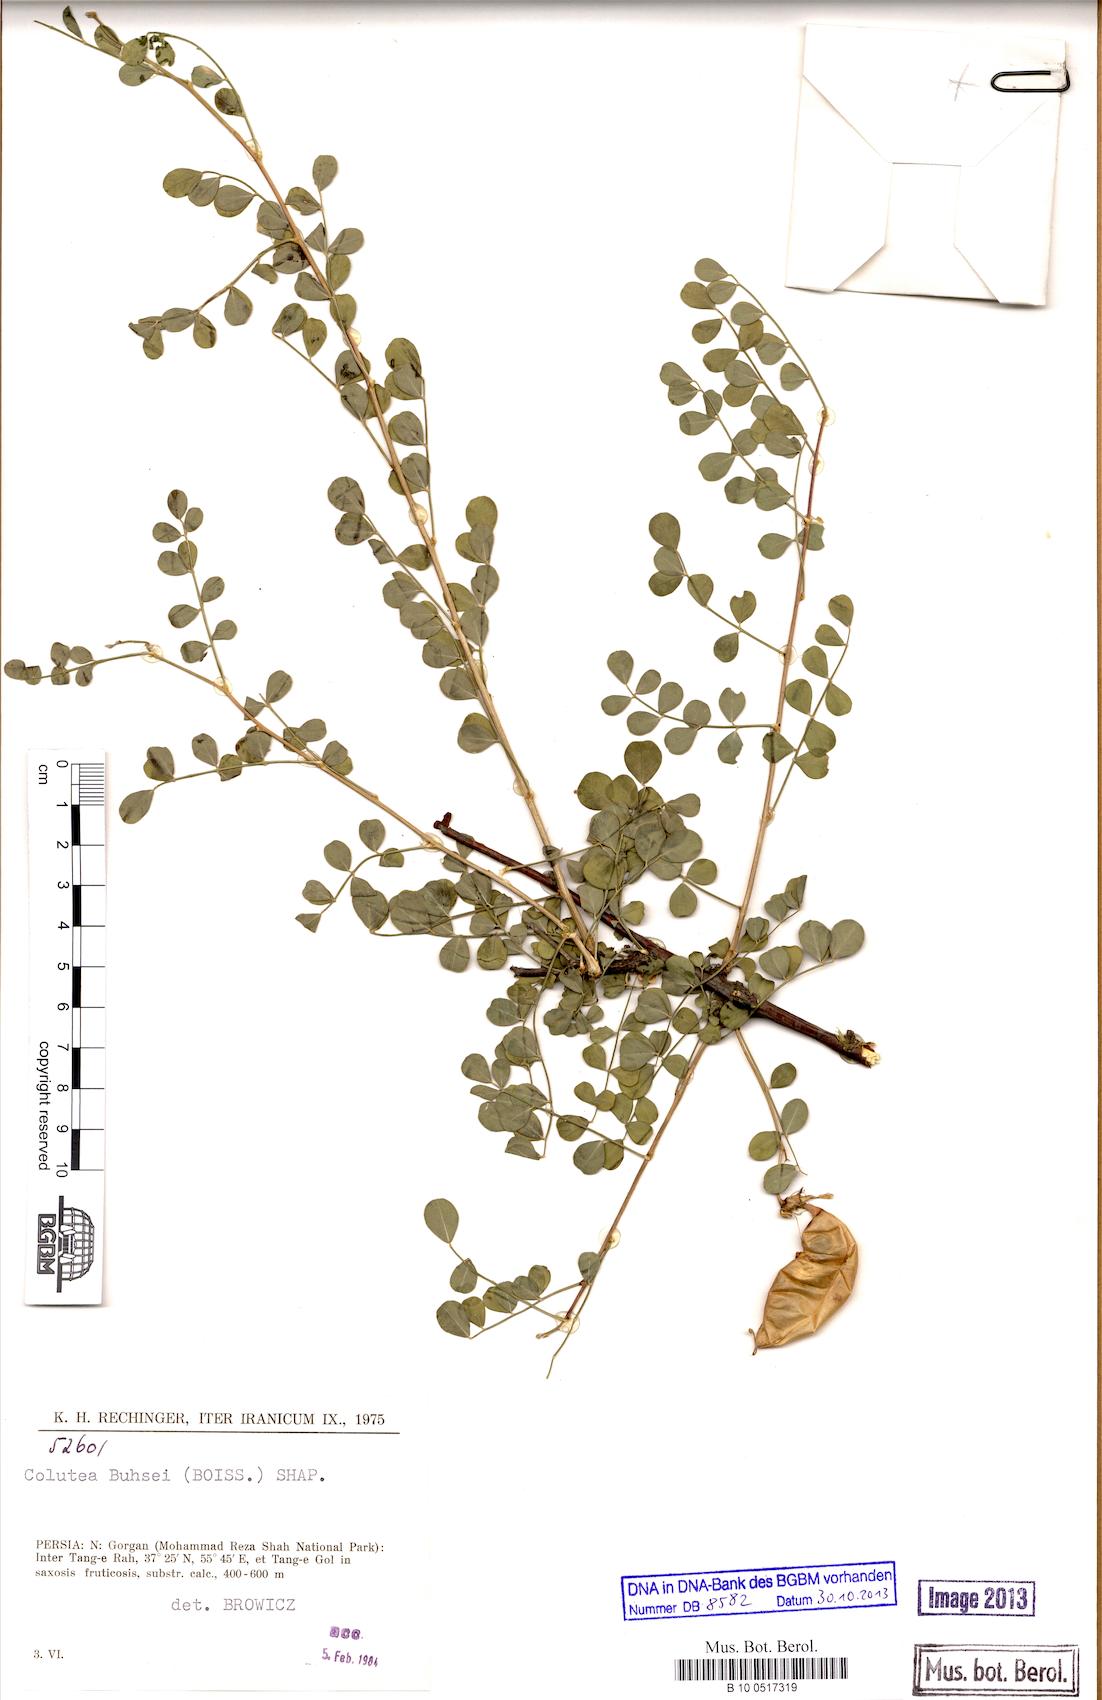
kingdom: Plantae
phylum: Tracheophyta
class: Magnoliopsida
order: Fabales
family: Fabaceae
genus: Colutea
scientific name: Colutea buhsei
